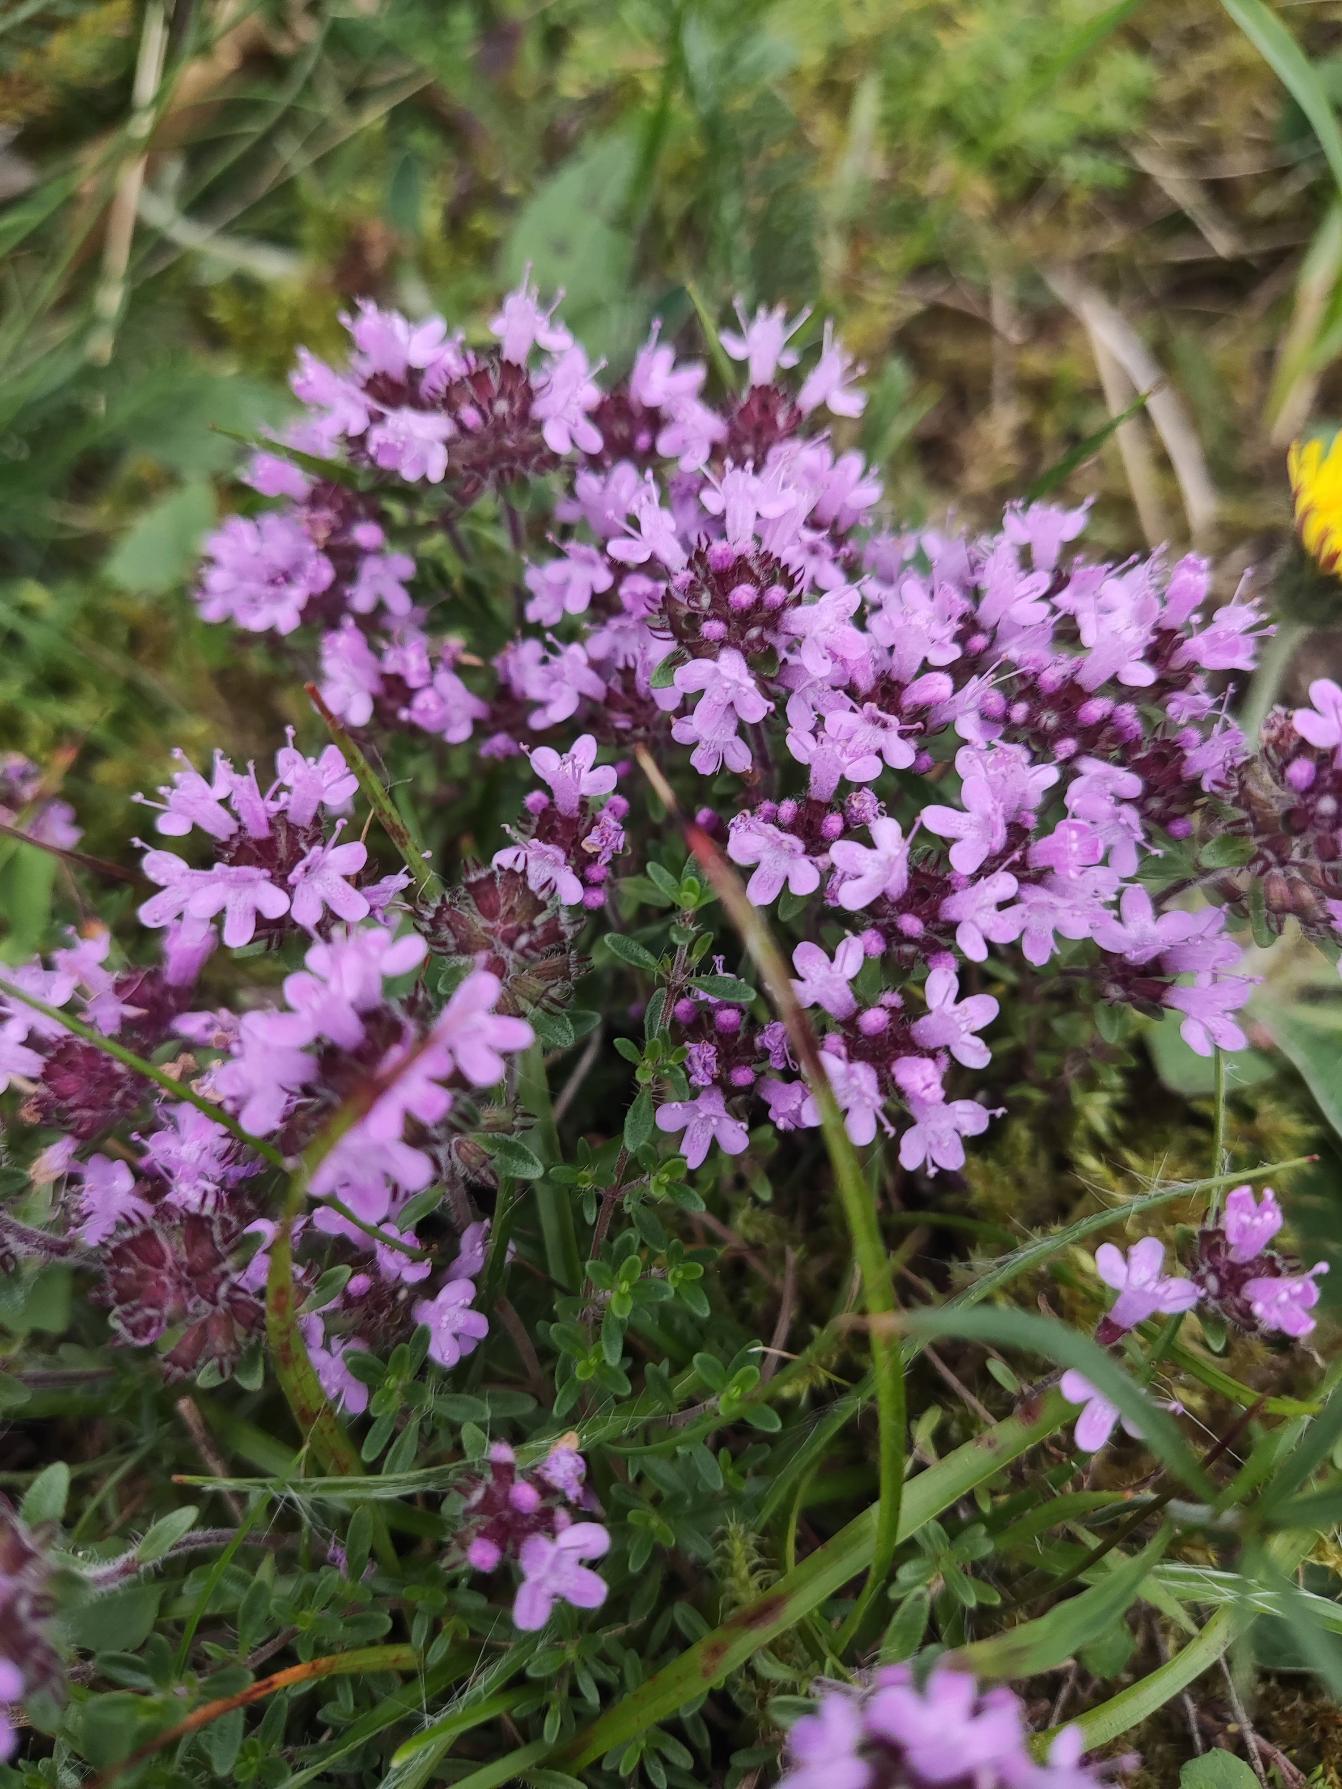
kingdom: Plantae
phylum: Tracheophyta
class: Magnoliopsida
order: Lamiales
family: Lamiaceae
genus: Thymus
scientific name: Thymus serpyllum
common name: Smalbladet timian
